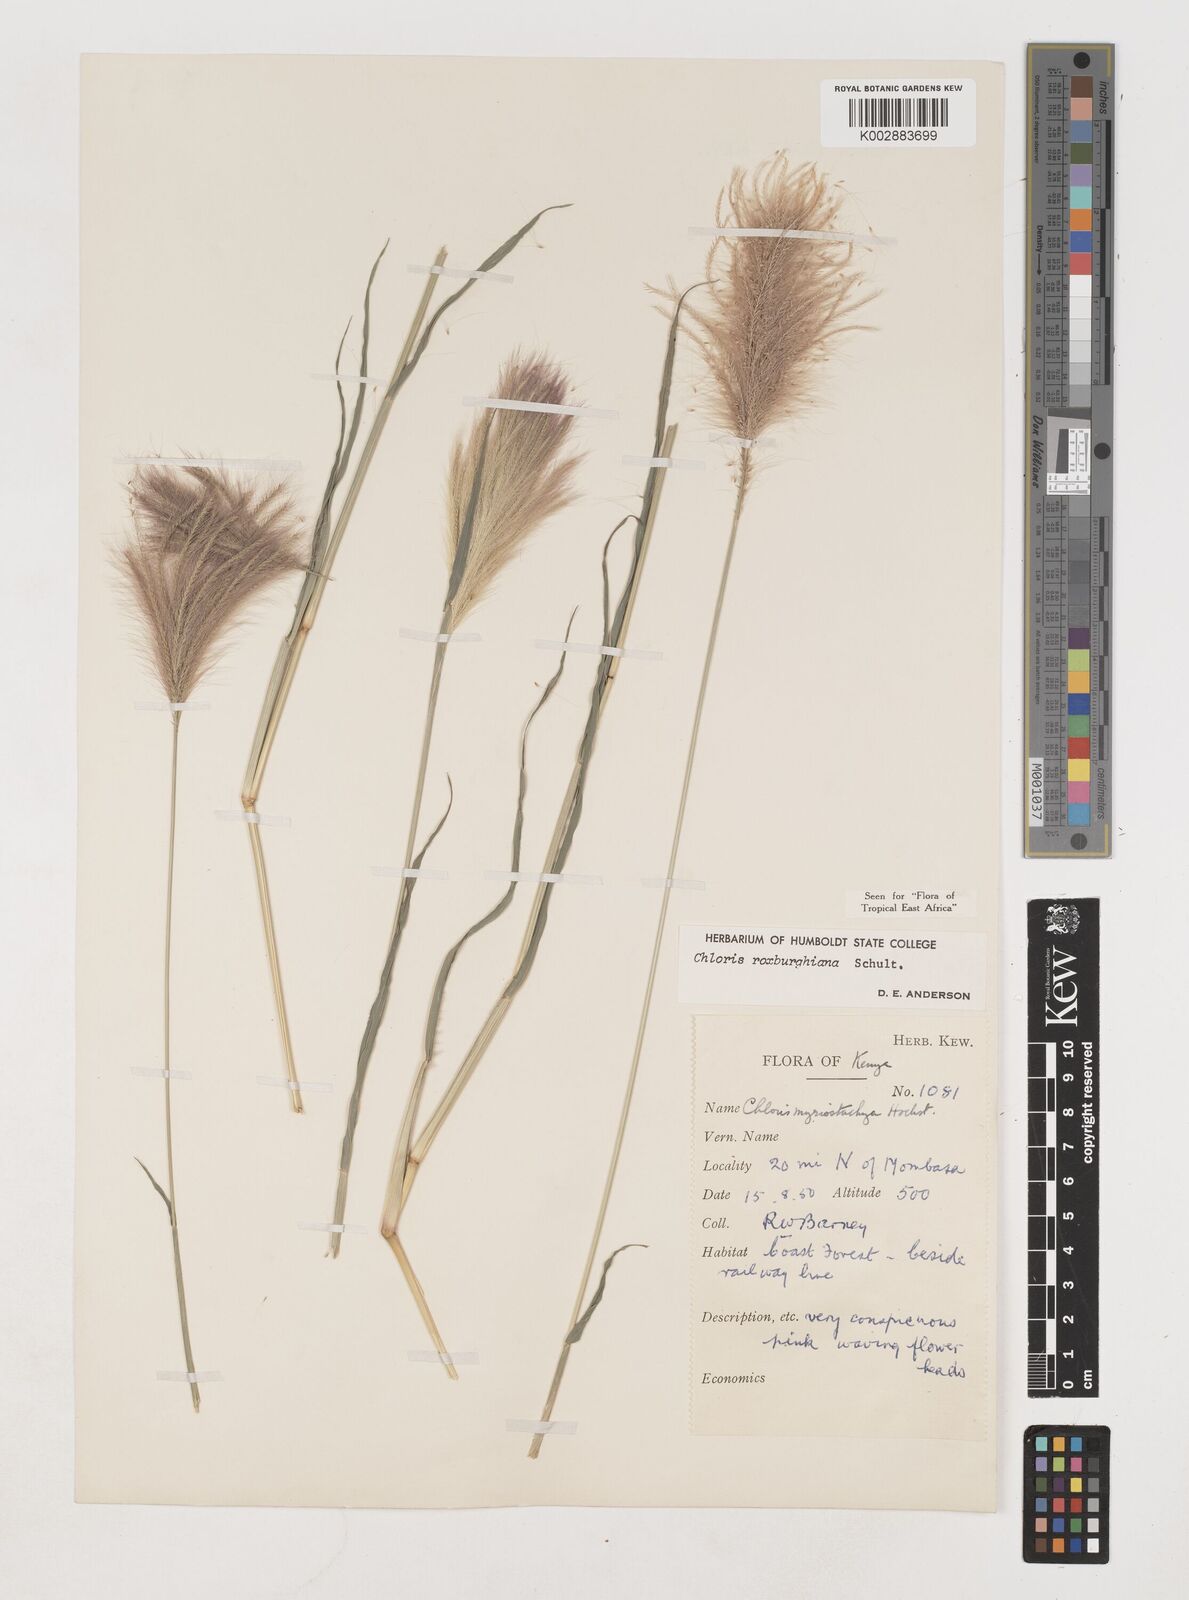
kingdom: Plantae
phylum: Tracheophyta
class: Liliopsida
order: Poales
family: Poaceae
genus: Tetrapogon
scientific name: Tetrapogon roxburghiana
